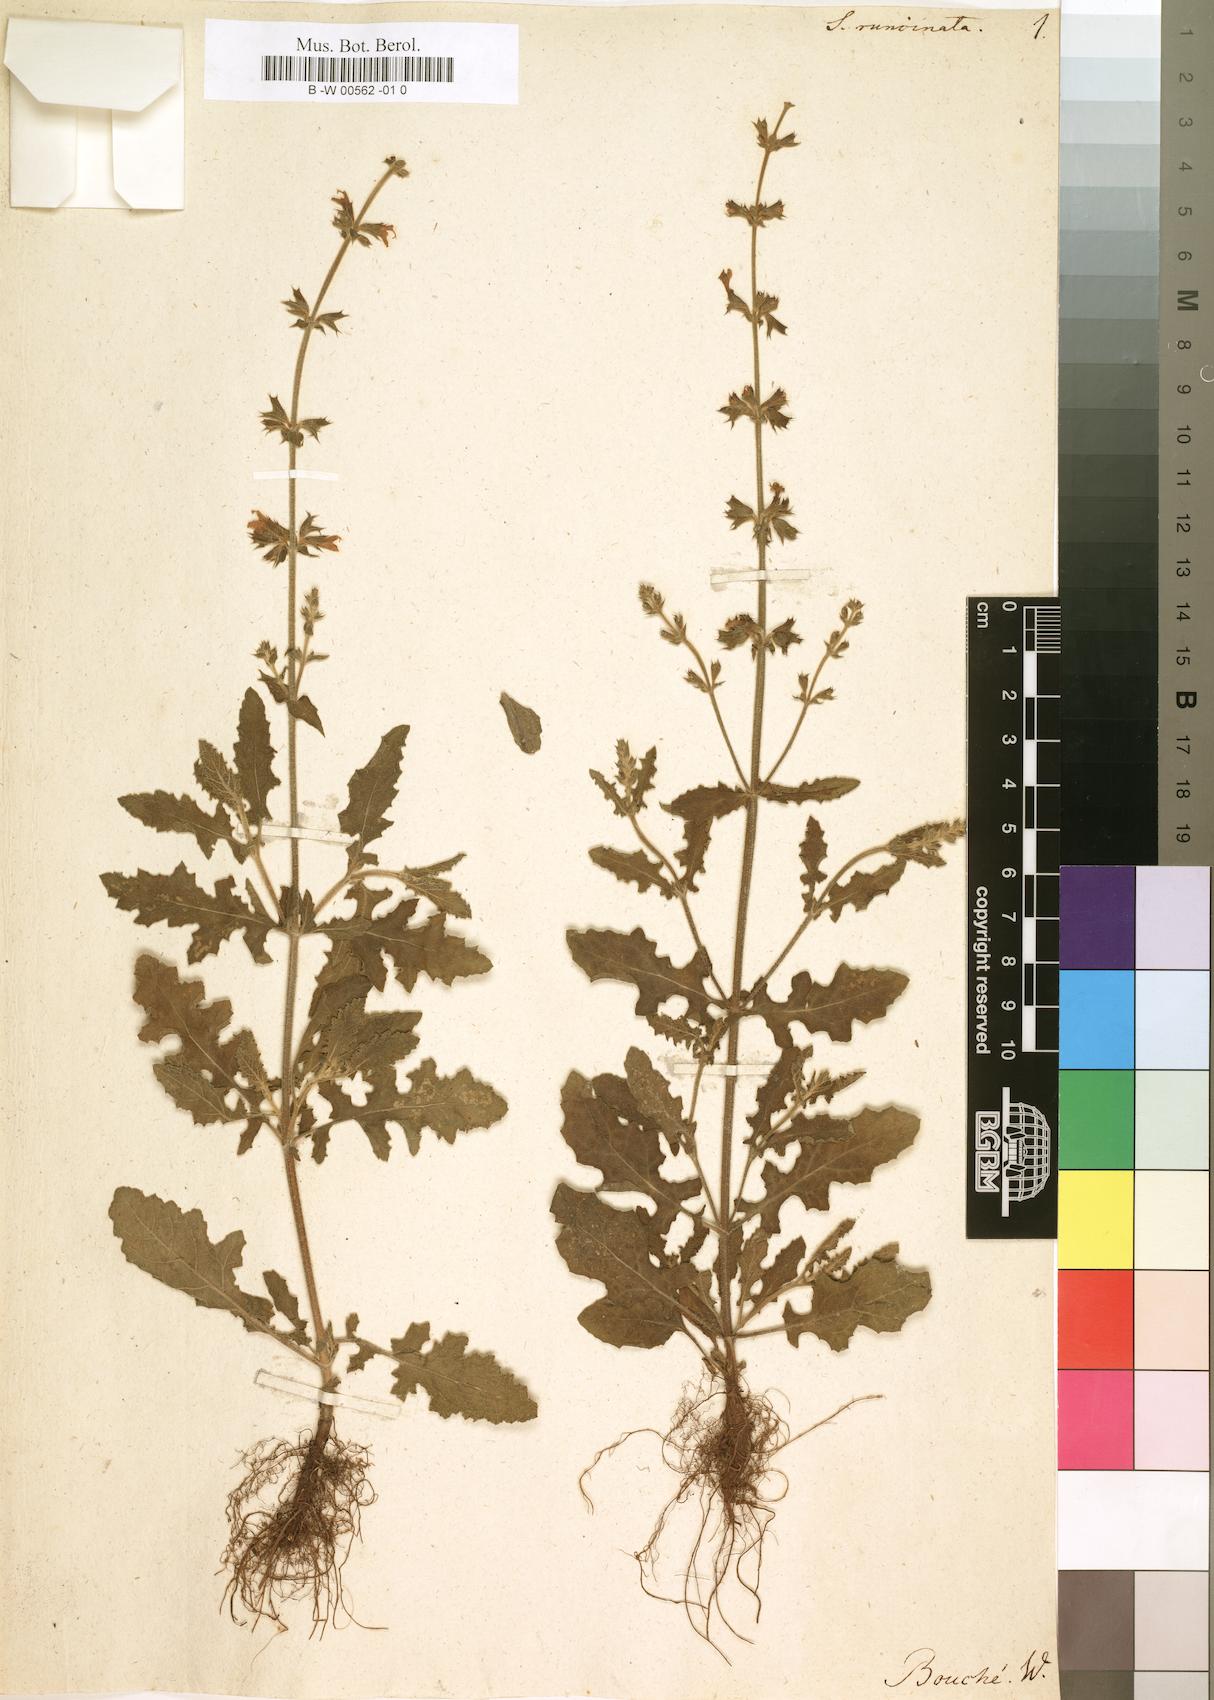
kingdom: Plantae
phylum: Tracheophyta
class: Magnoliopsida
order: Lamiales
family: Lamiaceae
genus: Salvia
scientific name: Salvia runcinata
